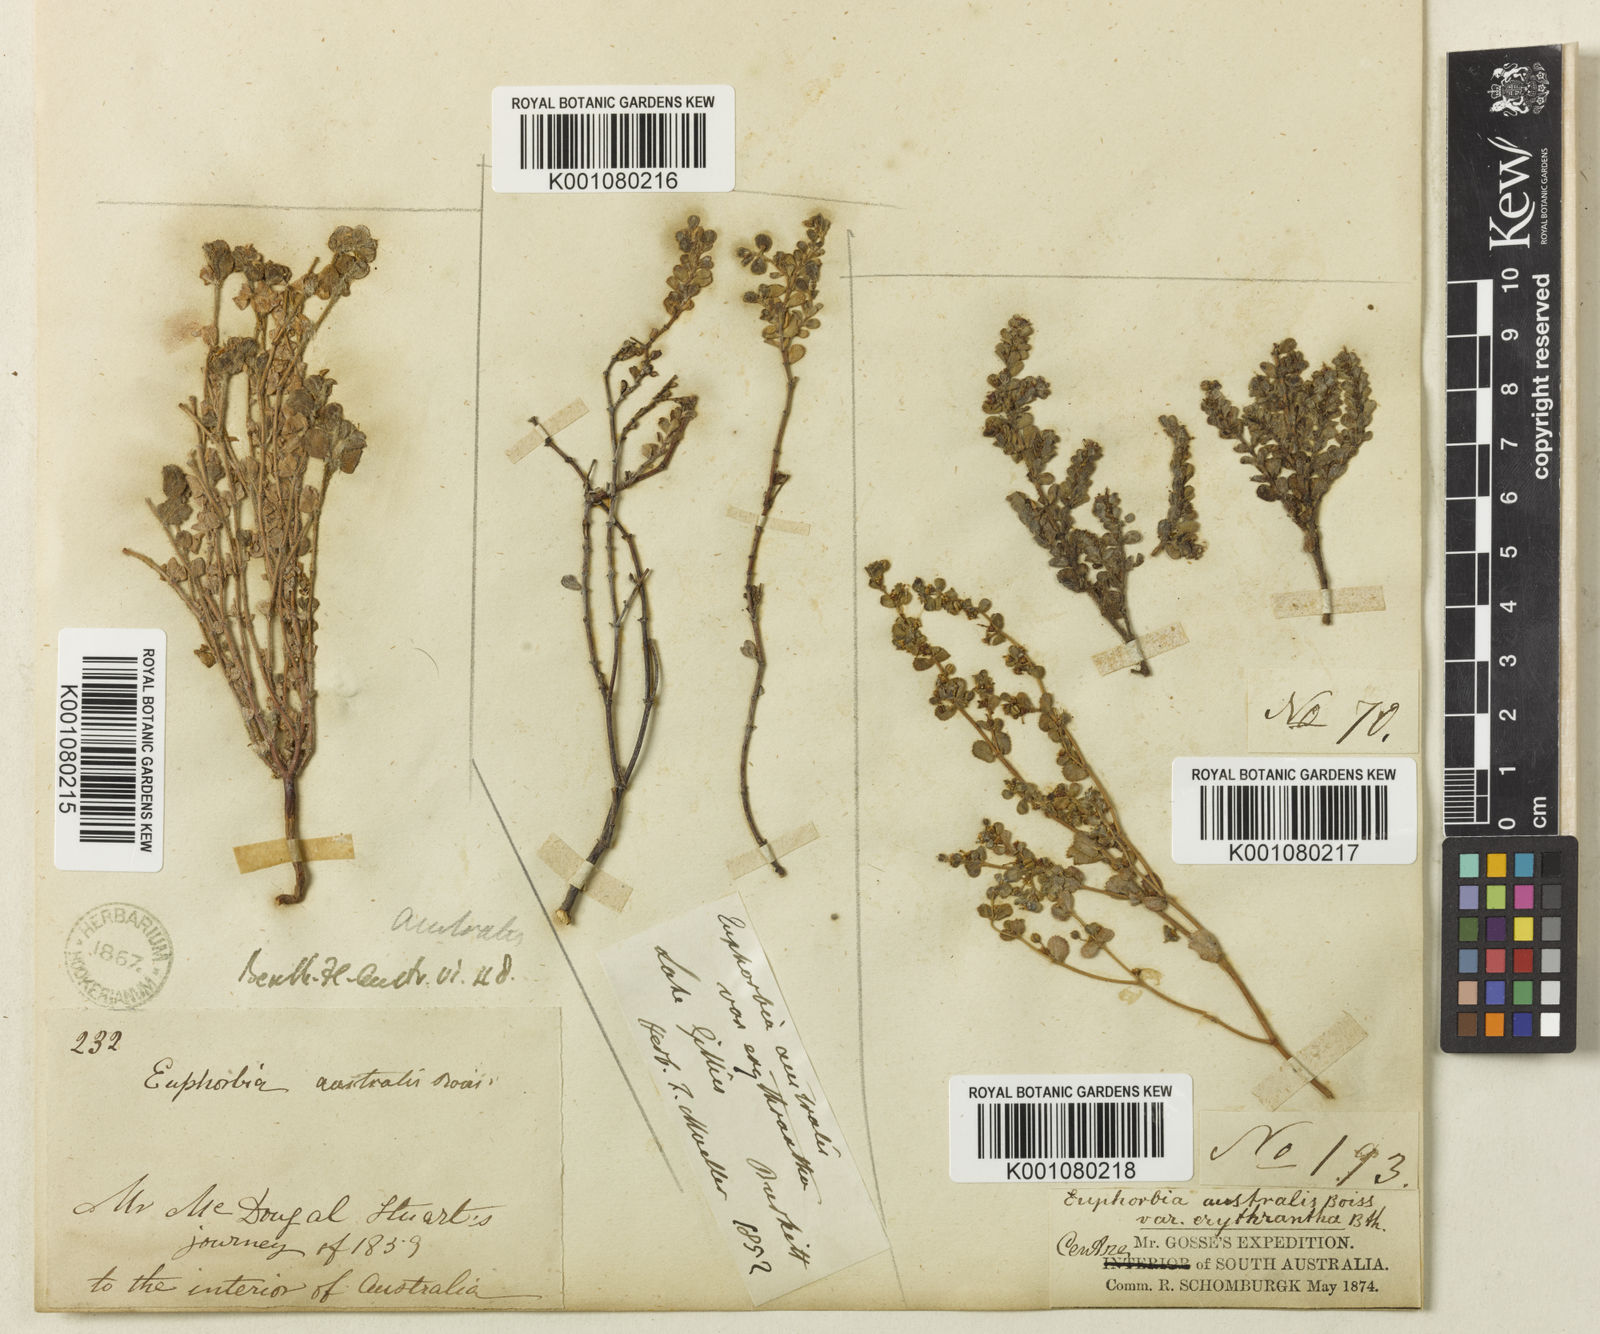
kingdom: Plantae
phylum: Tracheophyta
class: Magnoliopsida
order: Malpighiales
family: Euphorbiaceae
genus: Euphorbia
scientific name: Euphorbia australis
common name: Hairy causticweed
